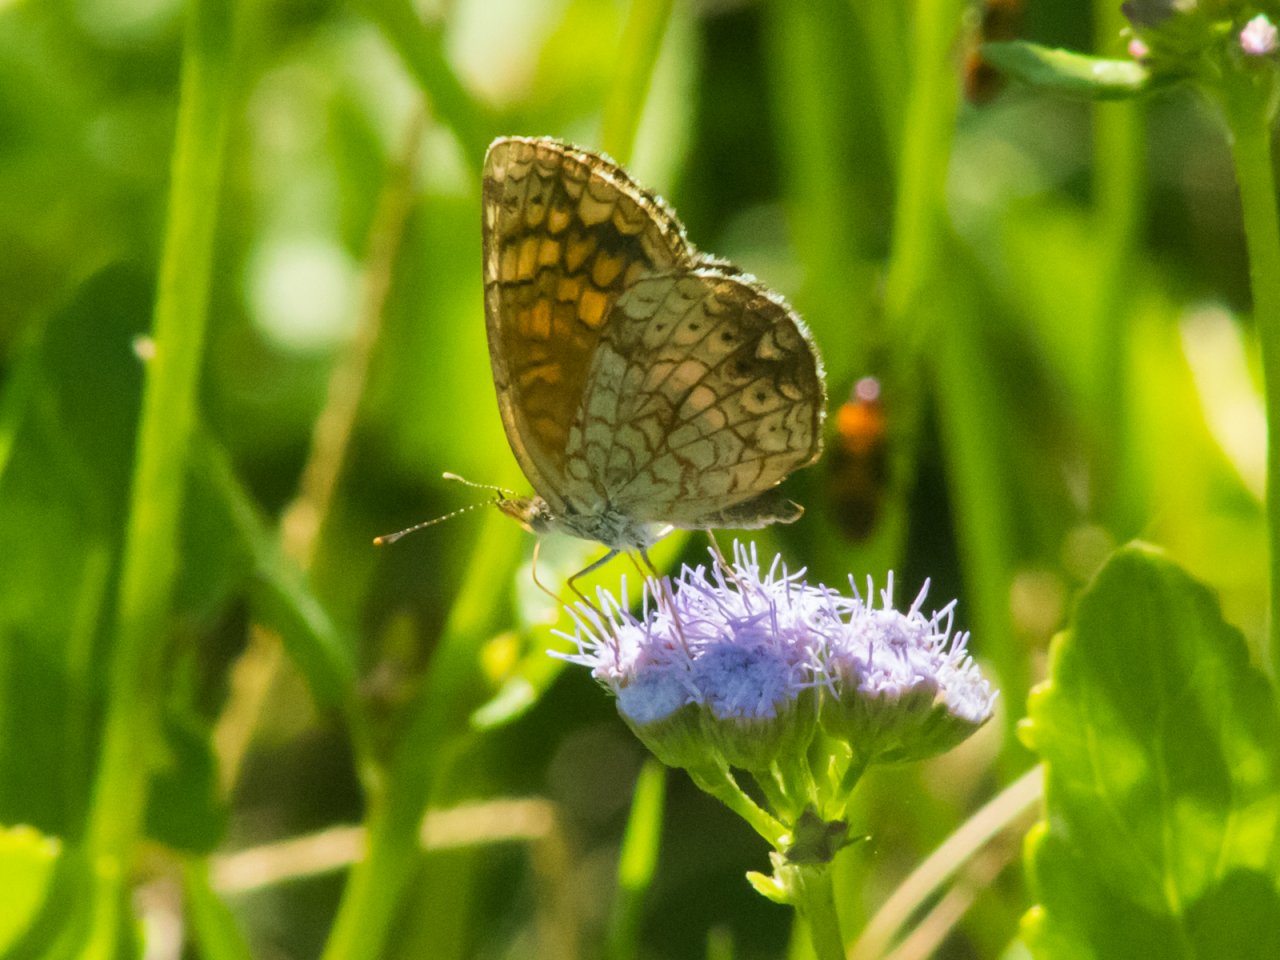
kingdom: Animalia
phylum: Arthropoda
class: Insecta
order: Lepidoptera
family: Nymphalidae
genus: Phyciodes
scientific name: Phyciodes vesta
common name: Vesta Crescent
